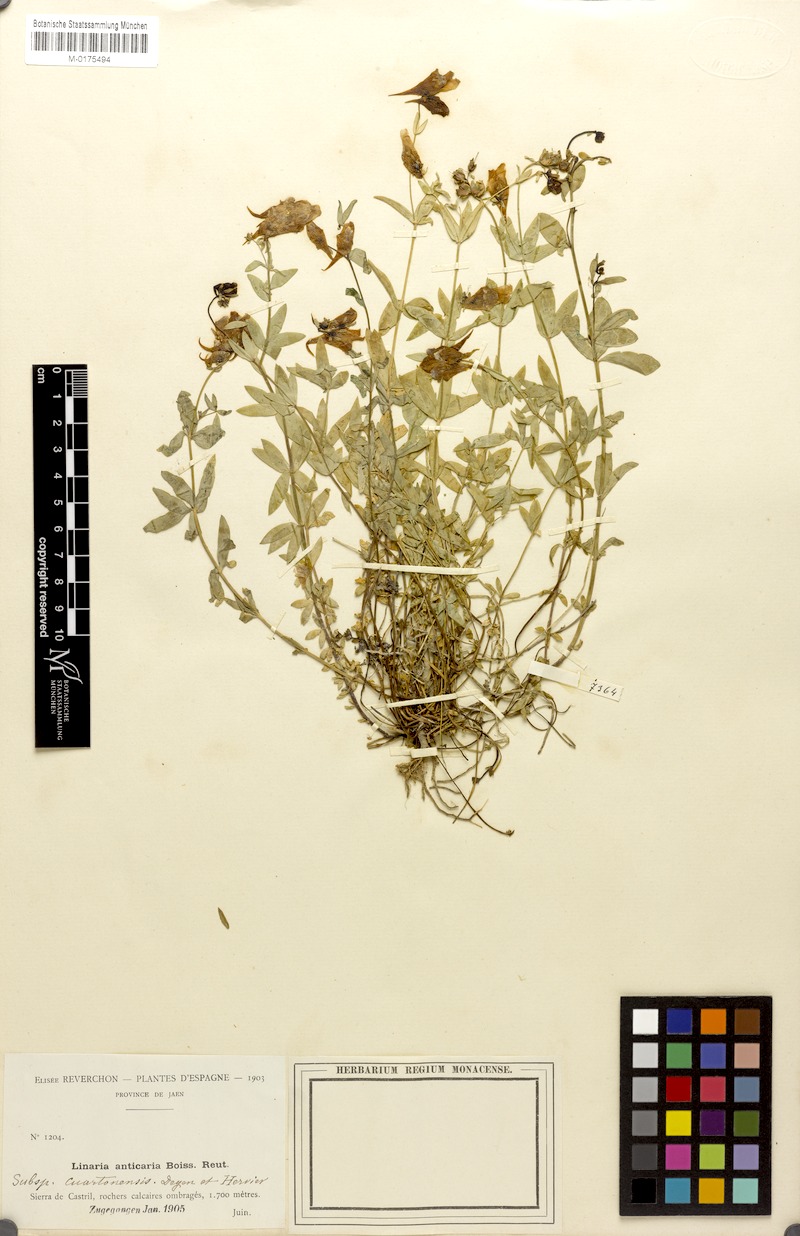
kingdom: Plantae
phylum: Tracheophyta
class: Magnoliopsida
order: Lamiales
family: Plantaginaceae
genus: Linaria
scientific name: Linaria verticillata
